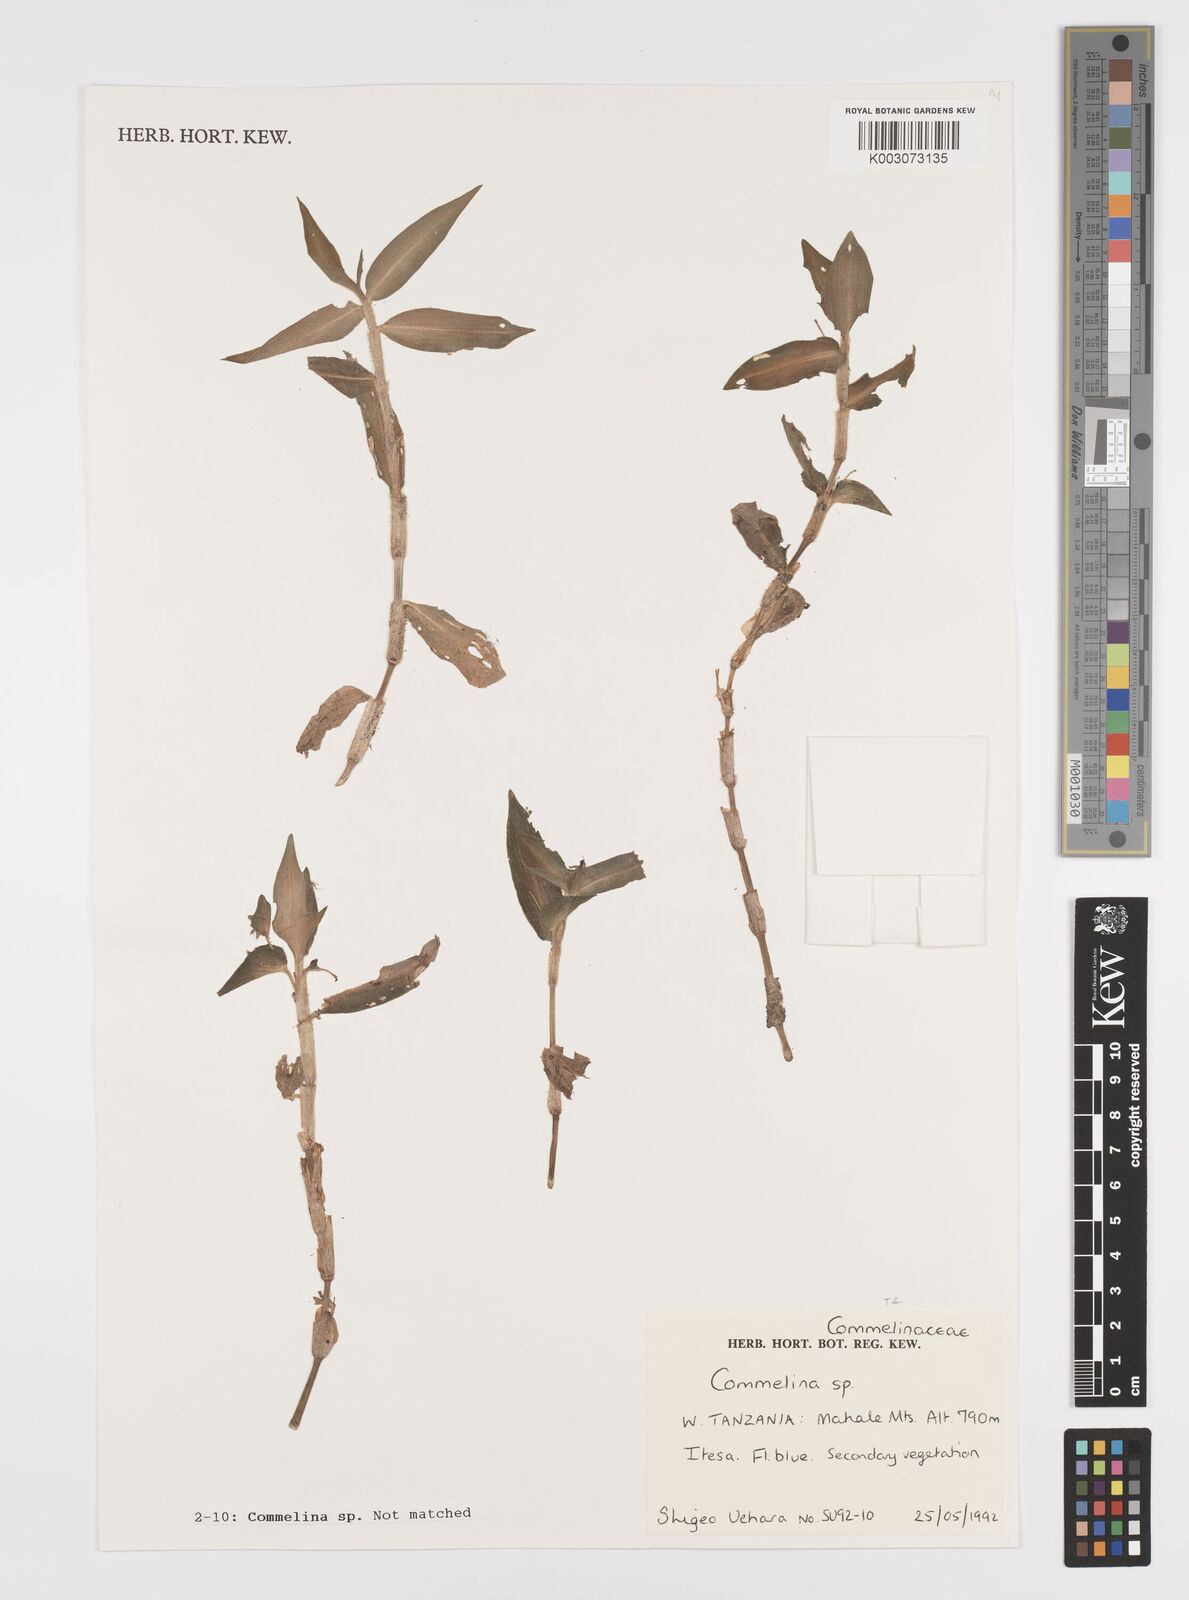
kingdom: Plantae
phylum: Tracheophyta
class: Liliopsida
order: Commelinales
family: Commelinaceae
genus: Commelina
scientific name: Commelina diffusa
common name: Climbing dayflower
